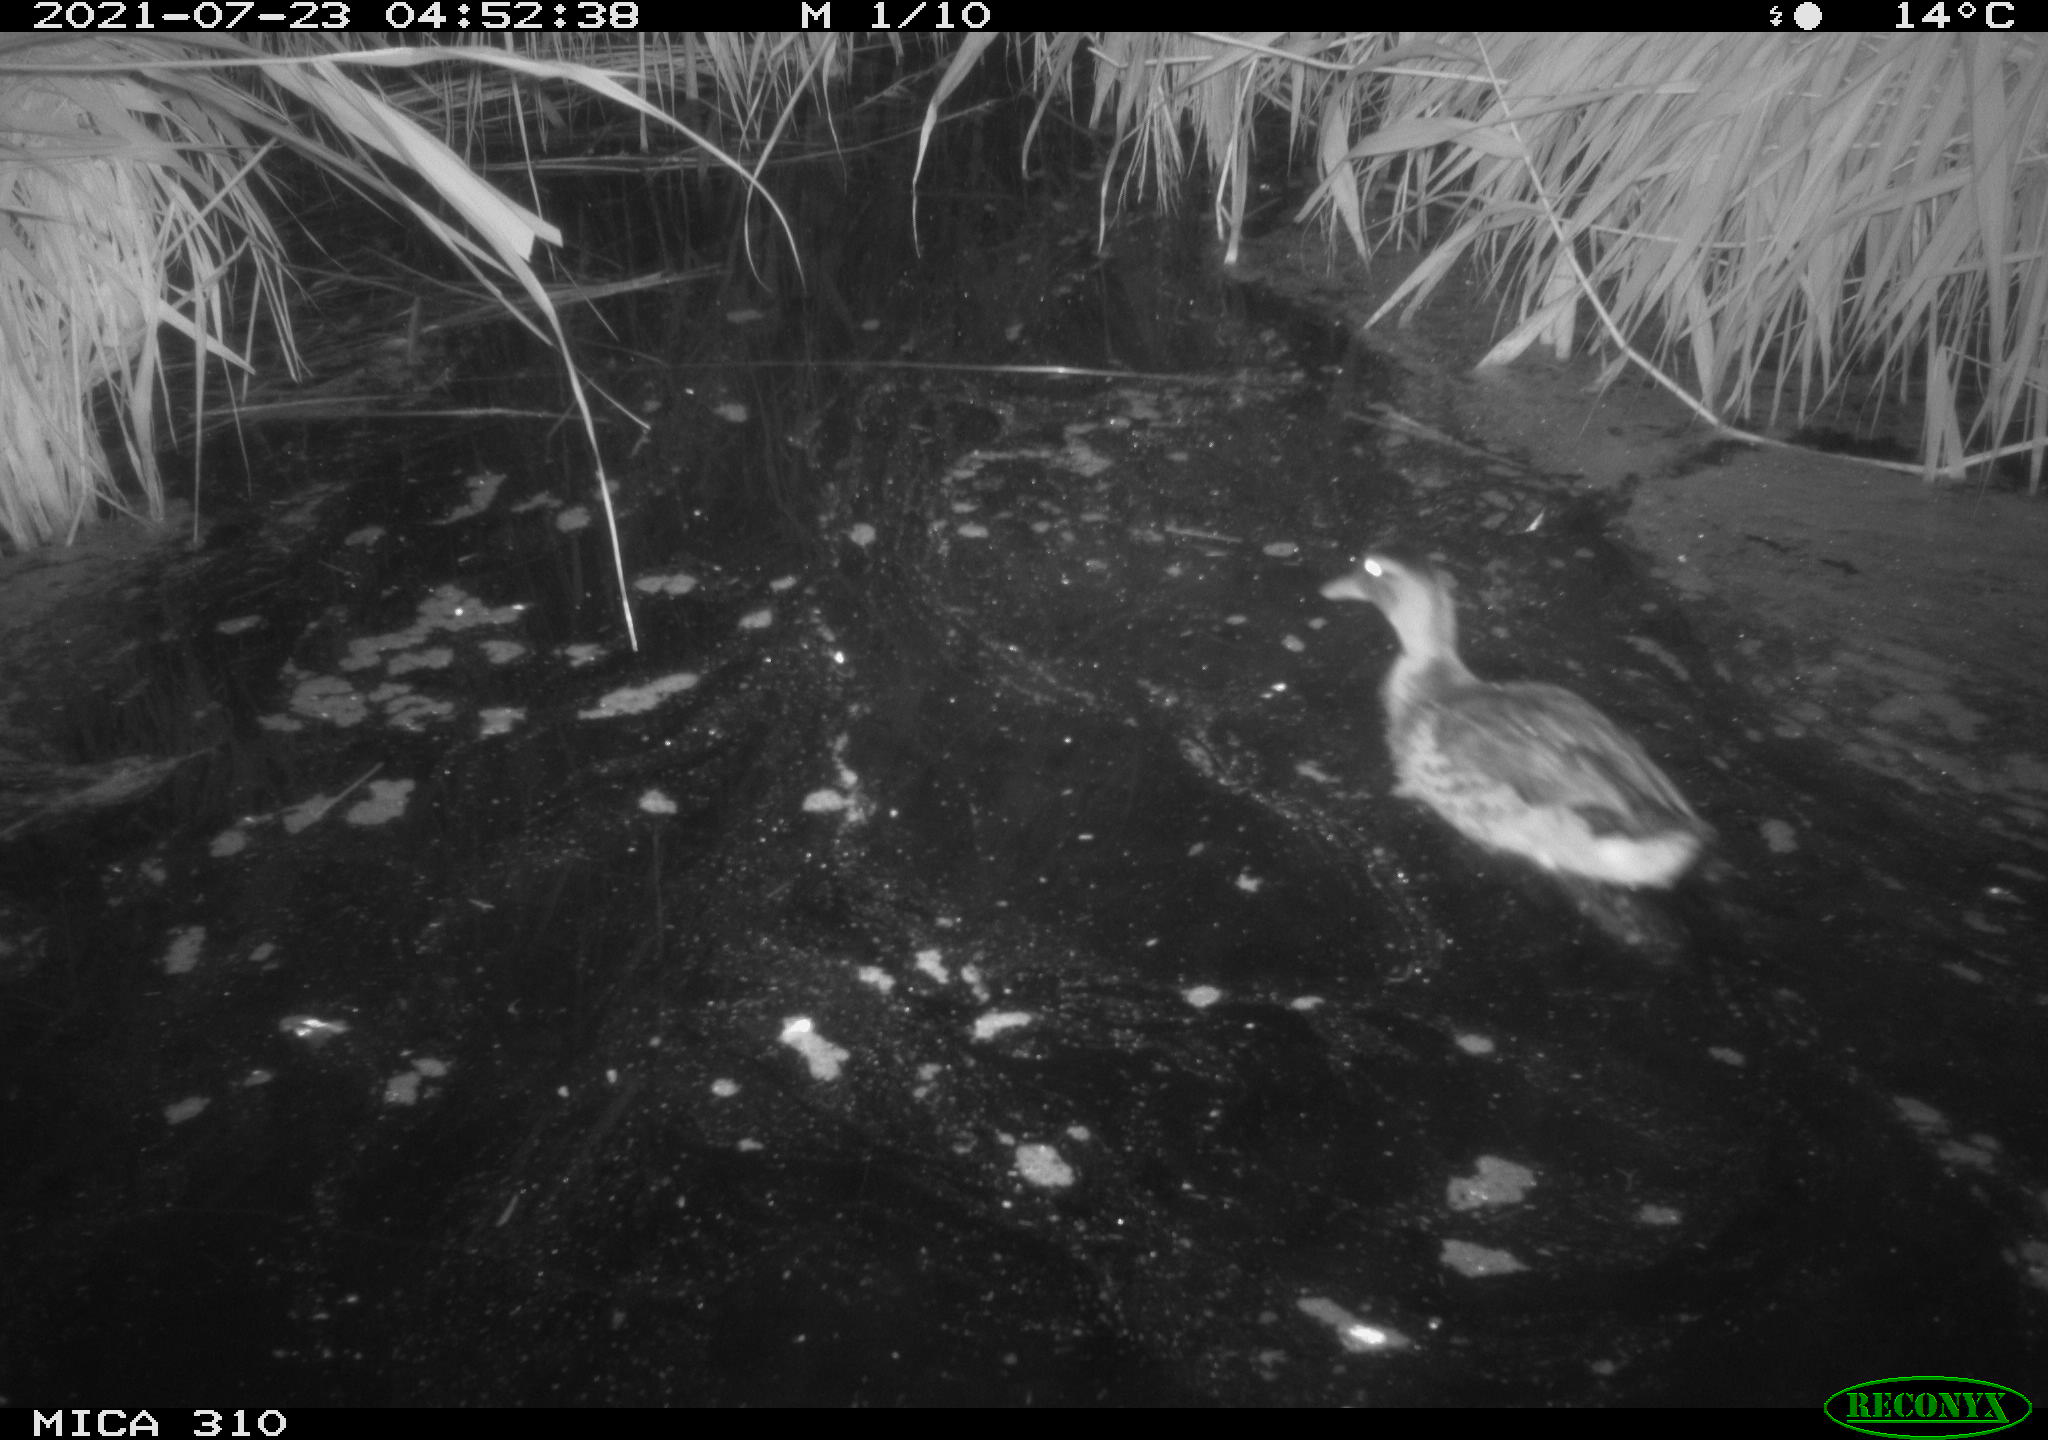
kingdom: Animalia
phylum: Chordata
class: Aves
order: Anseriformes
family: Anatidae
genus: Anas
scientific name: Anas platyrhynchos
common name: Mallard
